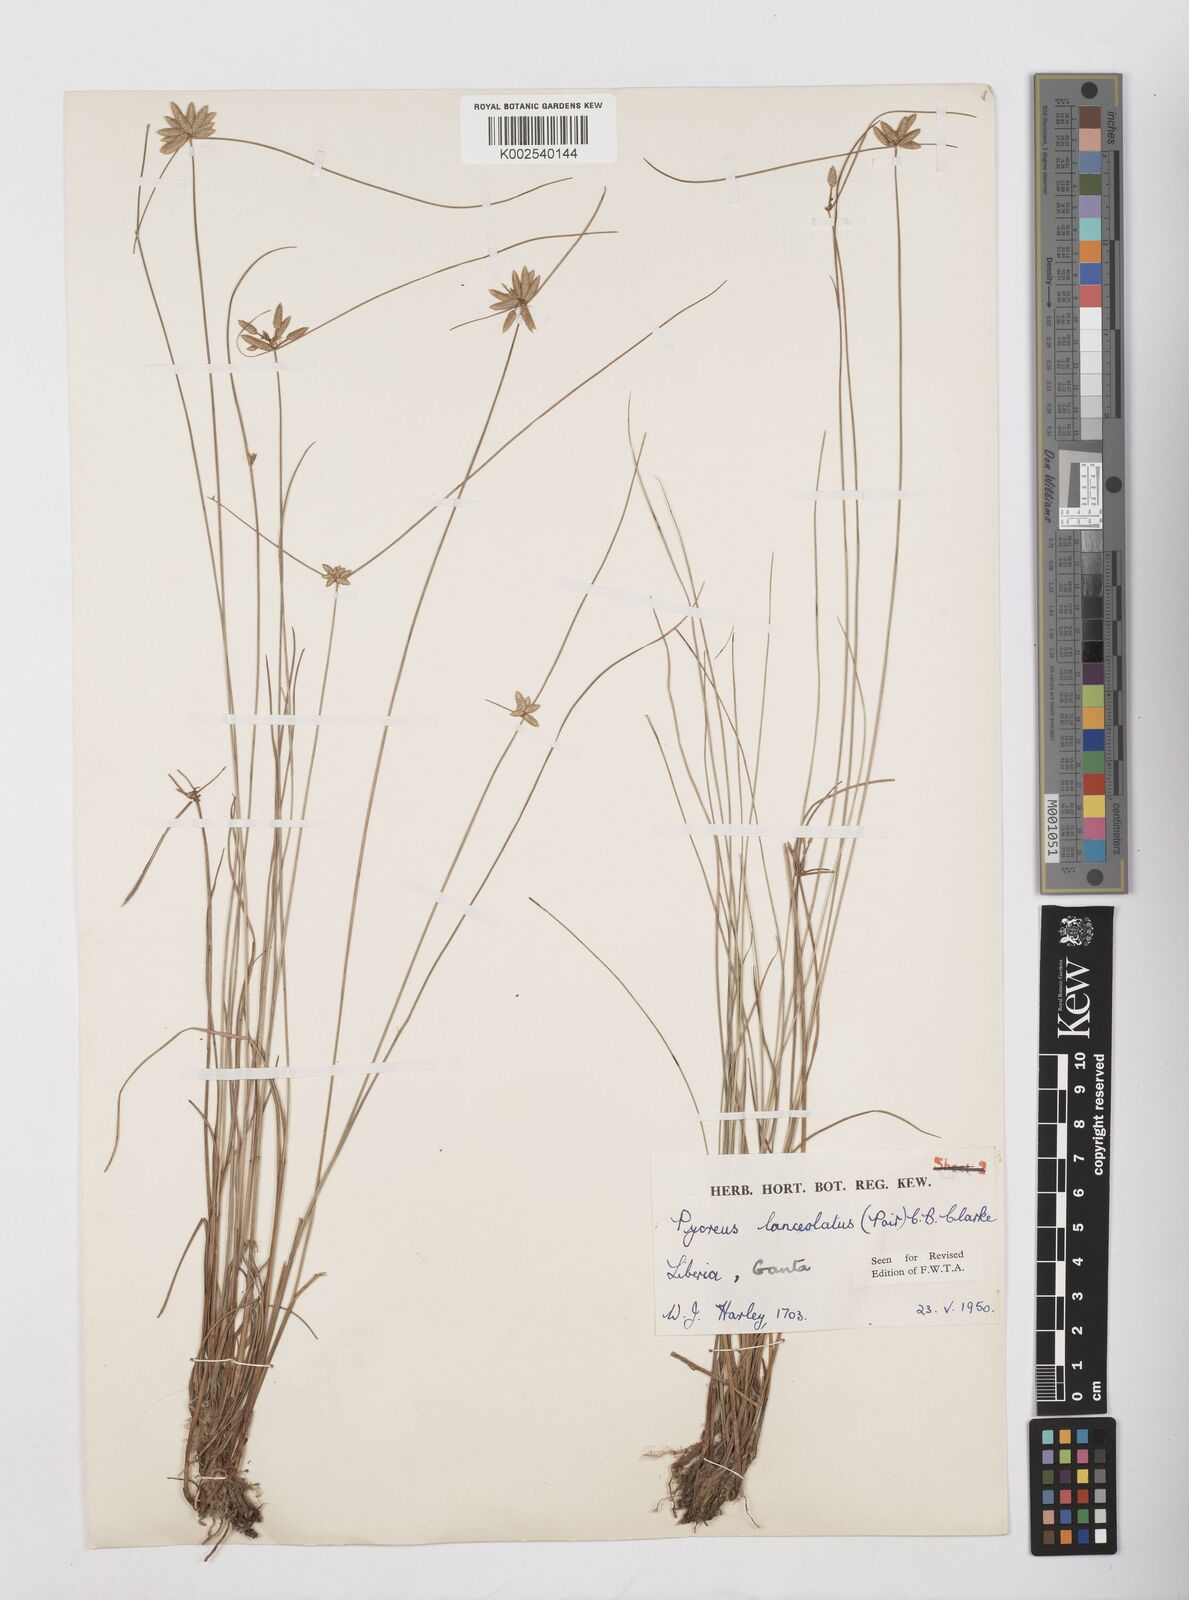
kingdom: Plantae
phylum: Tracheophyta
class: Liliopsida
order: Poales
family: Cyperaceae
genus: Cyperus
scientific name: Cyperus
